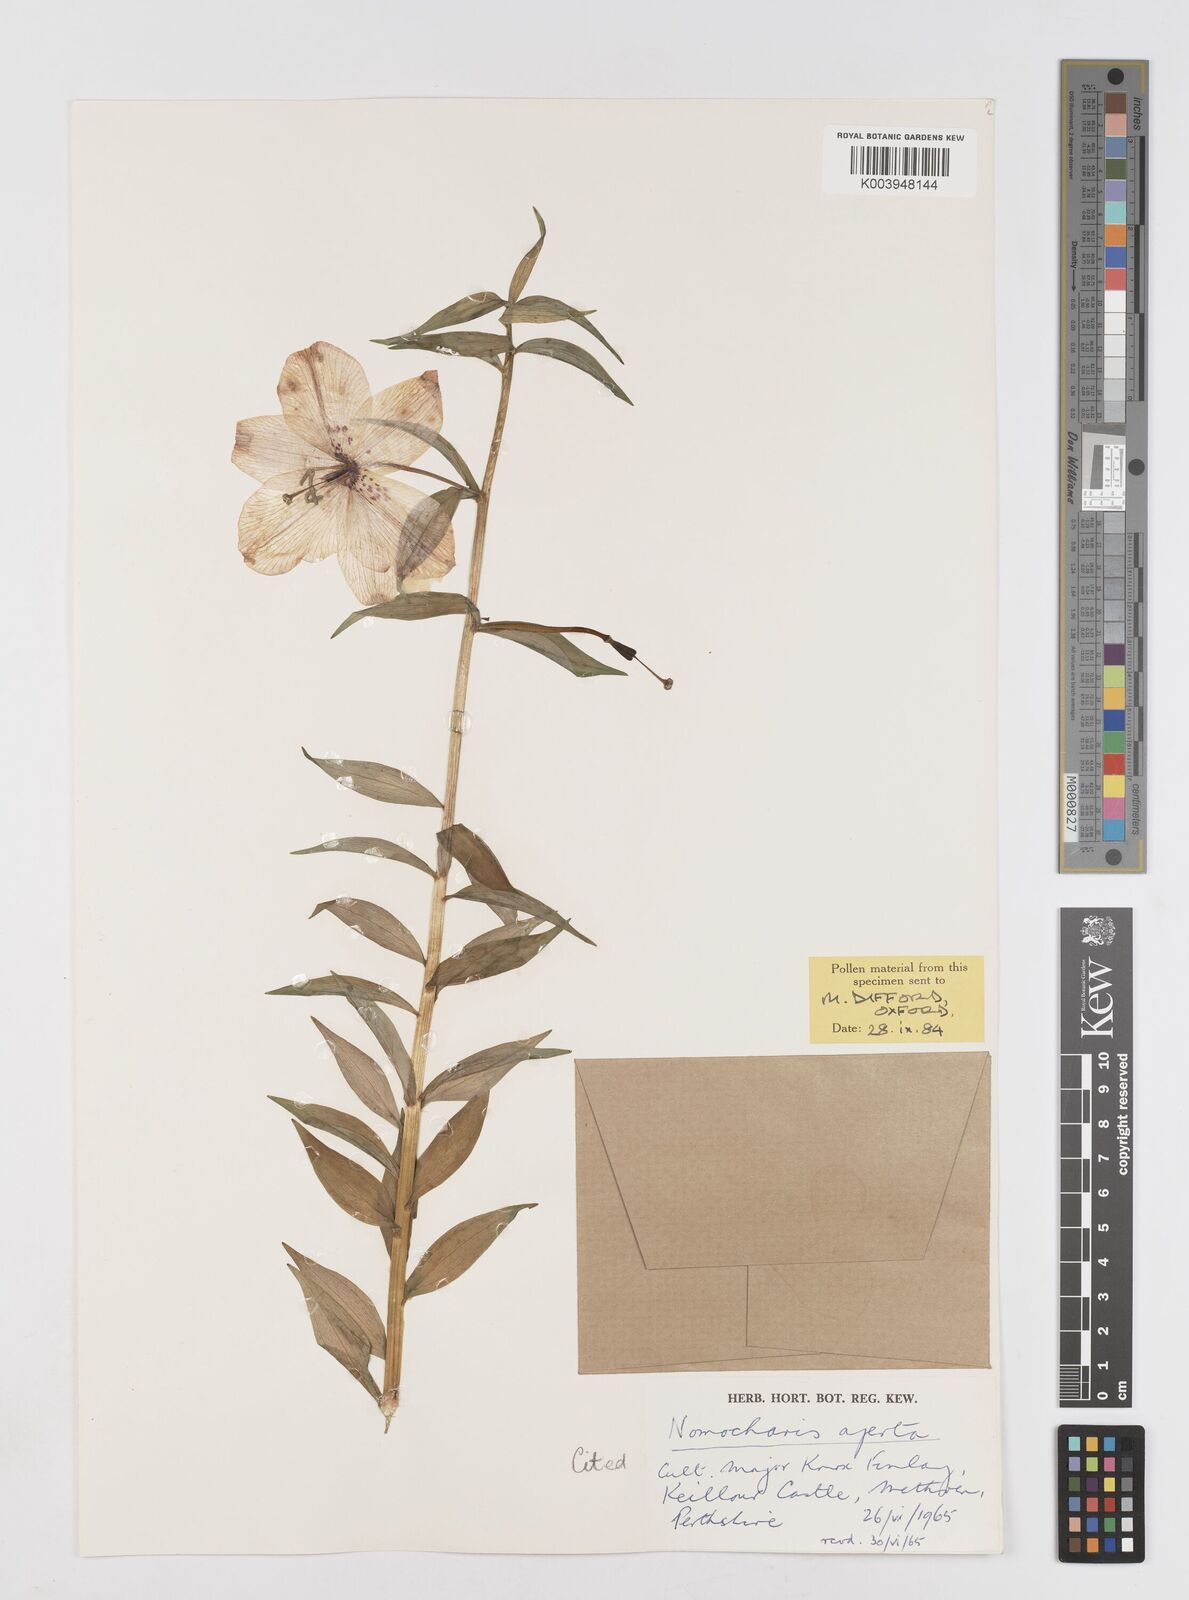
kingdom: Plantae
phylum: Tracheophyta
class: Liliopsida
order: Liliales
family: Liliaceae
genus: Lilium
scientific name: Lilium apertum
